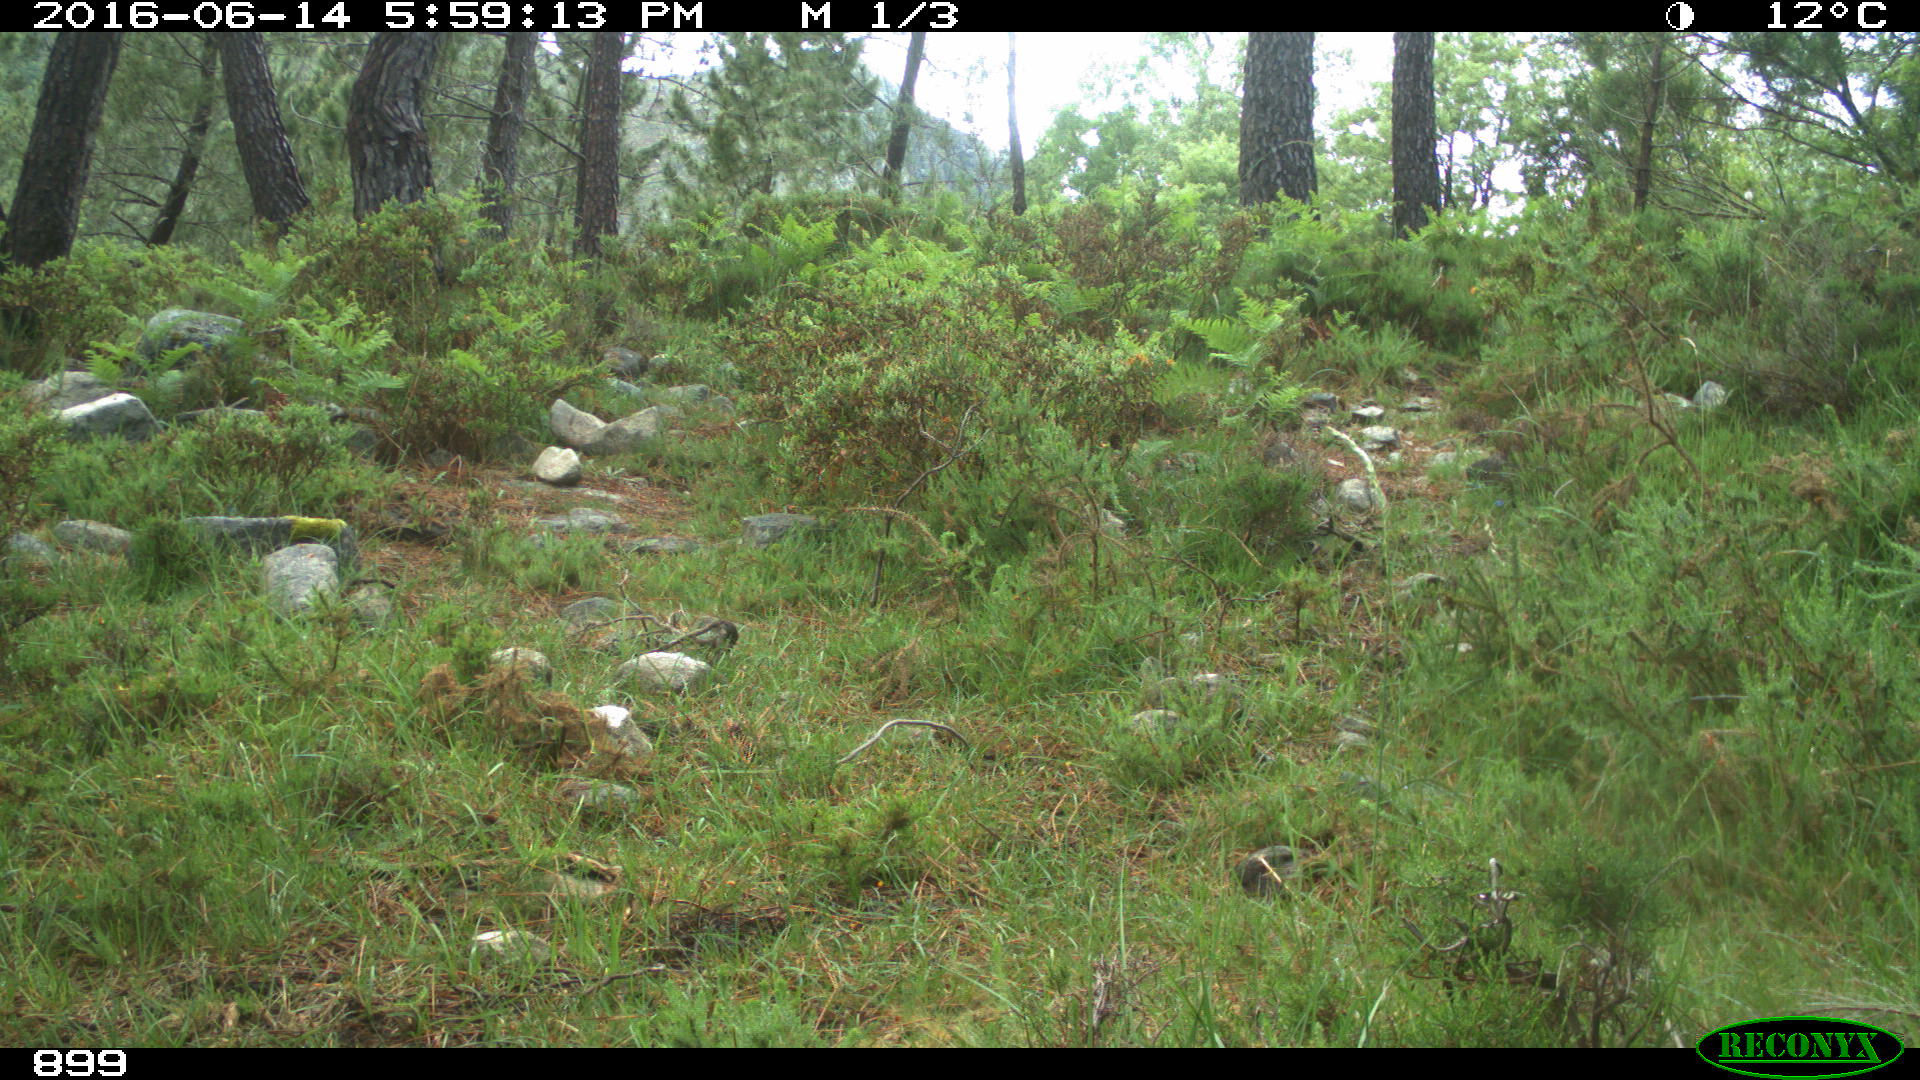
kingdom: Animalia
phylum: Chordata
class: Mammalia
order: Artiodactyla
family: Bovidae
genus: Bos
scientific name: Bos taurus
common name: Domesticated cattle
